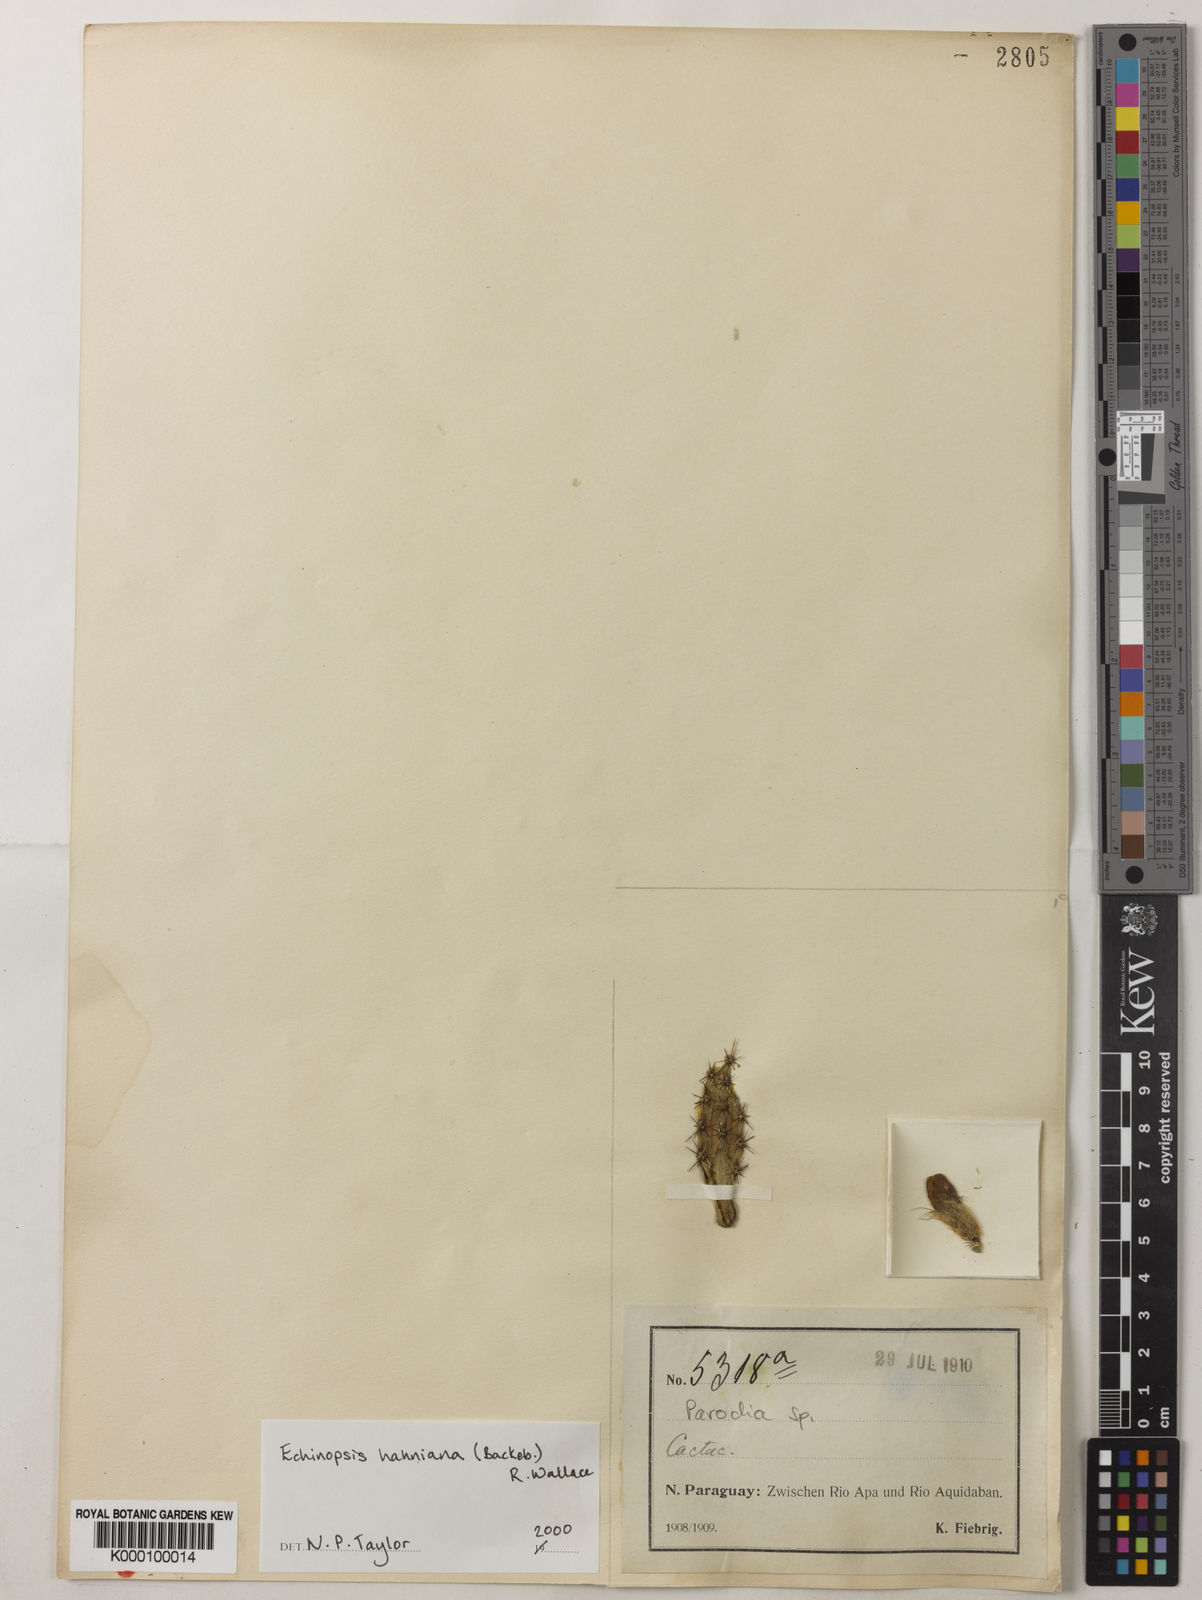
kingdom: Plantae
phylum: Tracheophyta
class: Magnoliopsida
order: Caryophyllales
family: Cactaceae
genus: Soehrensia
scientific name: Soehrensia hahniana
